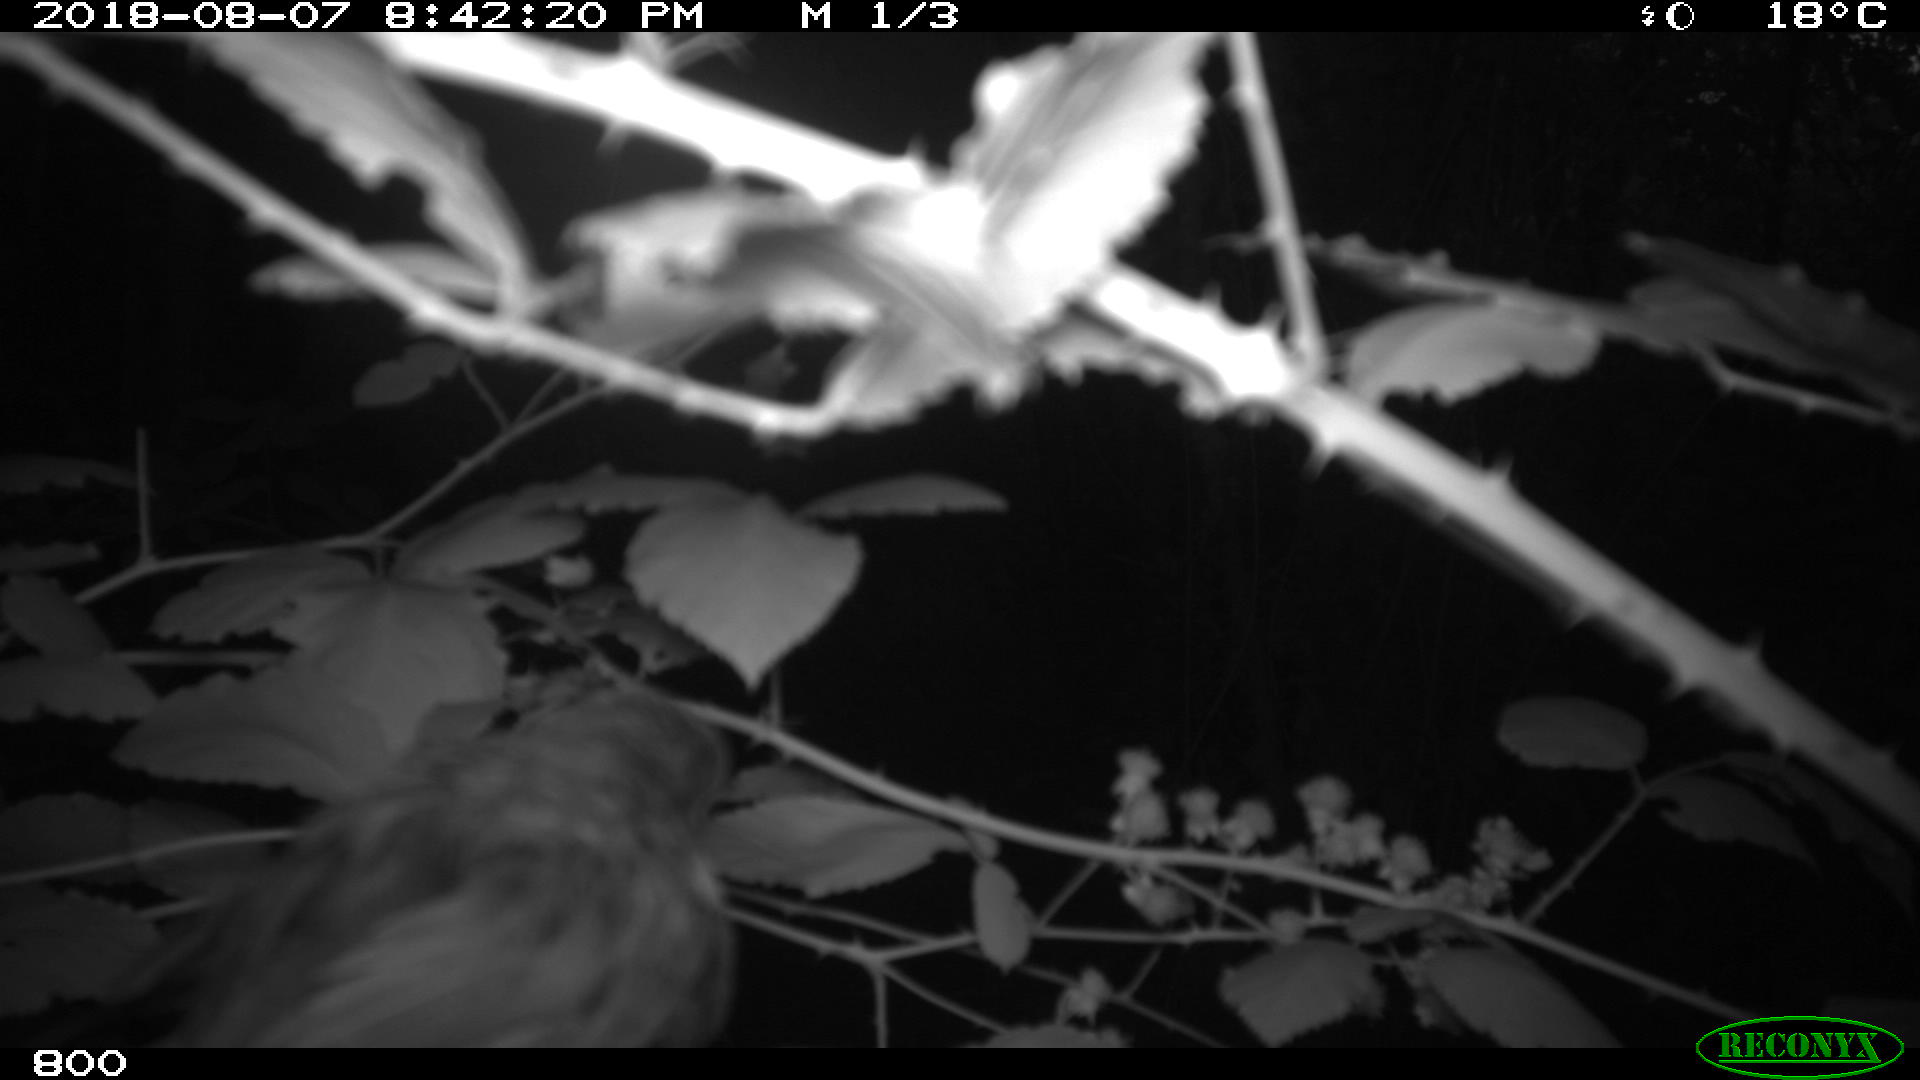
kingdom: Animalia
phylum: Chordata
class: Aves
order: Passeriformes
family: Muscicapidae
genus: Erithacus
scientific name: Erithacus rubecula
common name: European robin
